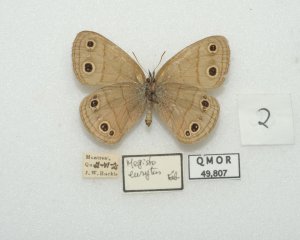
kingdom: Animalia
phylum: Arthropoda
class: Insecta
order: Lepidoptera
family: Nymphalidae
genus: Euptychia
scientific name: Euptychia cymela
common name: Little Wood Satyr
